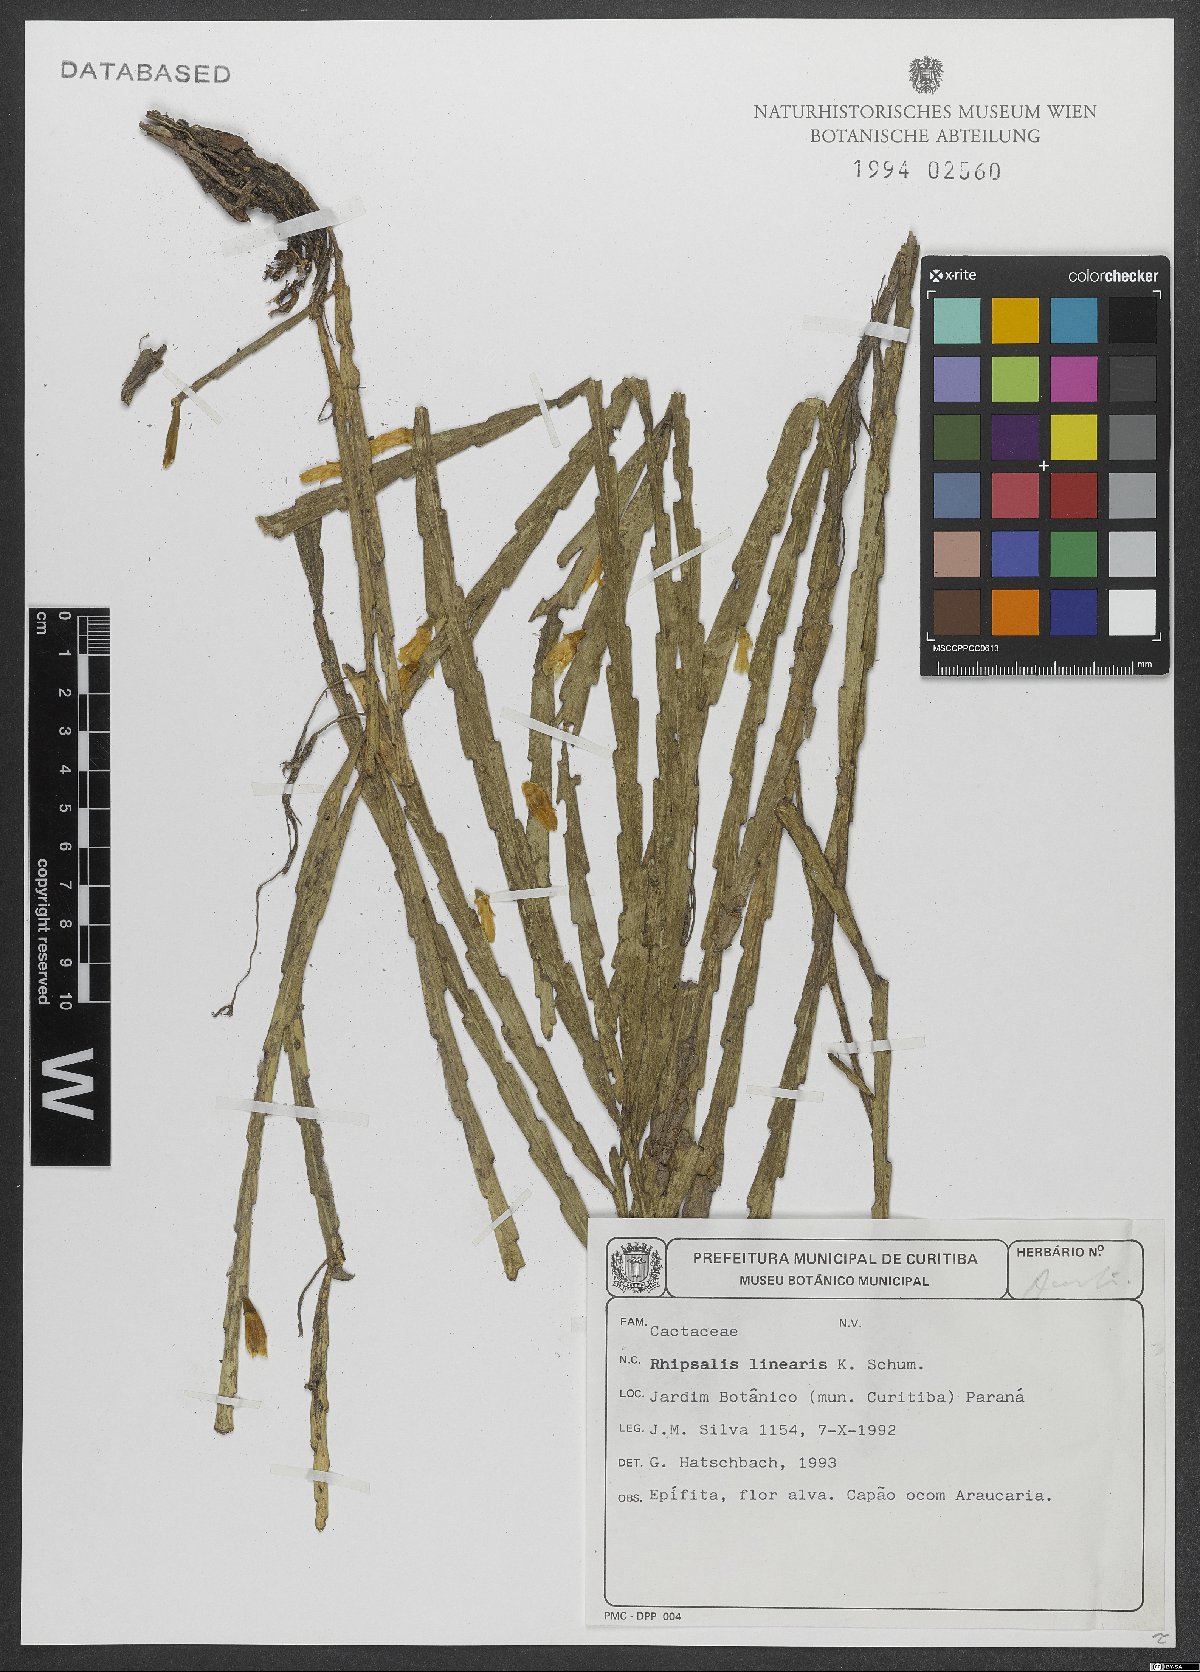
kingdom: Plantae
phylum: Tracheophyta
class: Magnoliopsida
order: Caryophyllales
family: Cactaceae
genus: Lepismium
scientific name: Lepismium warmingianum
